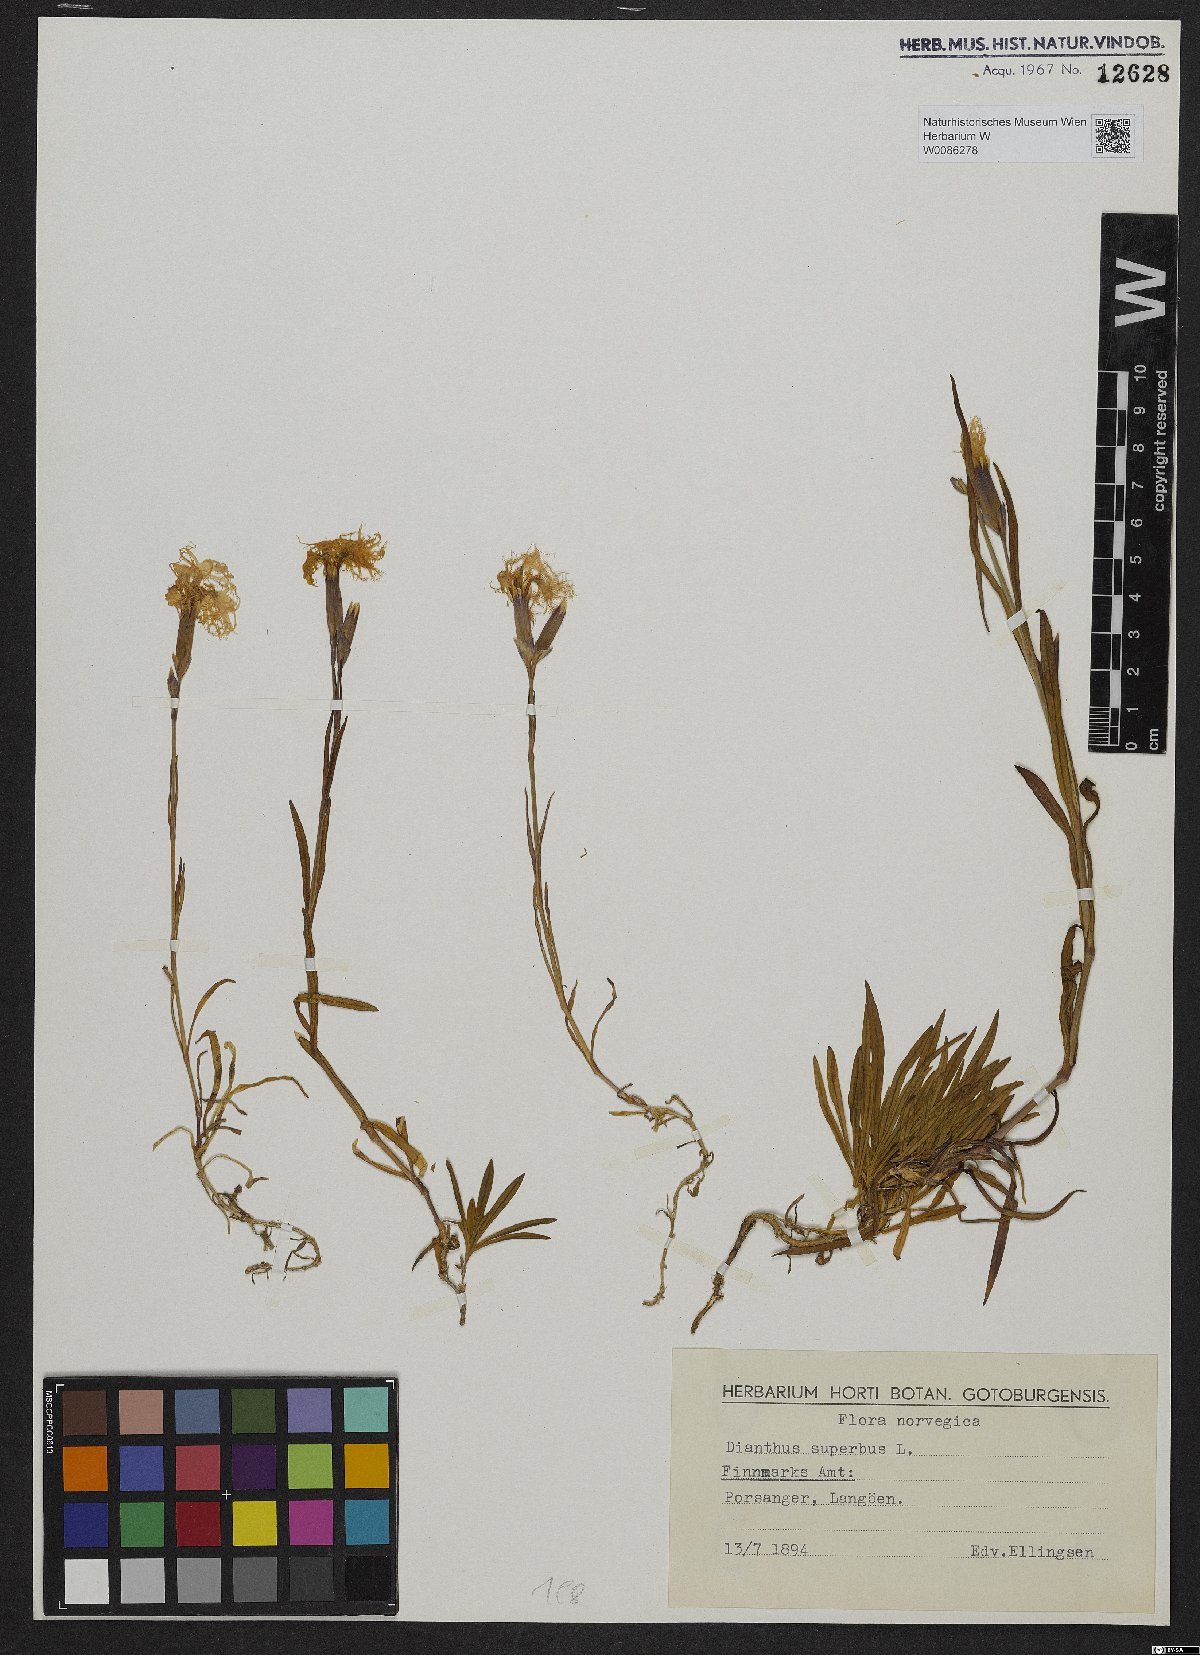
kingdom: Plantae
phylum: Tracheophyta
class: Magnoliopsida
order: Caryophyllales
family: Caryophyllaceae
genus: Dianthus
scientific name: Dianthus superbus
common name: Fringed pink
